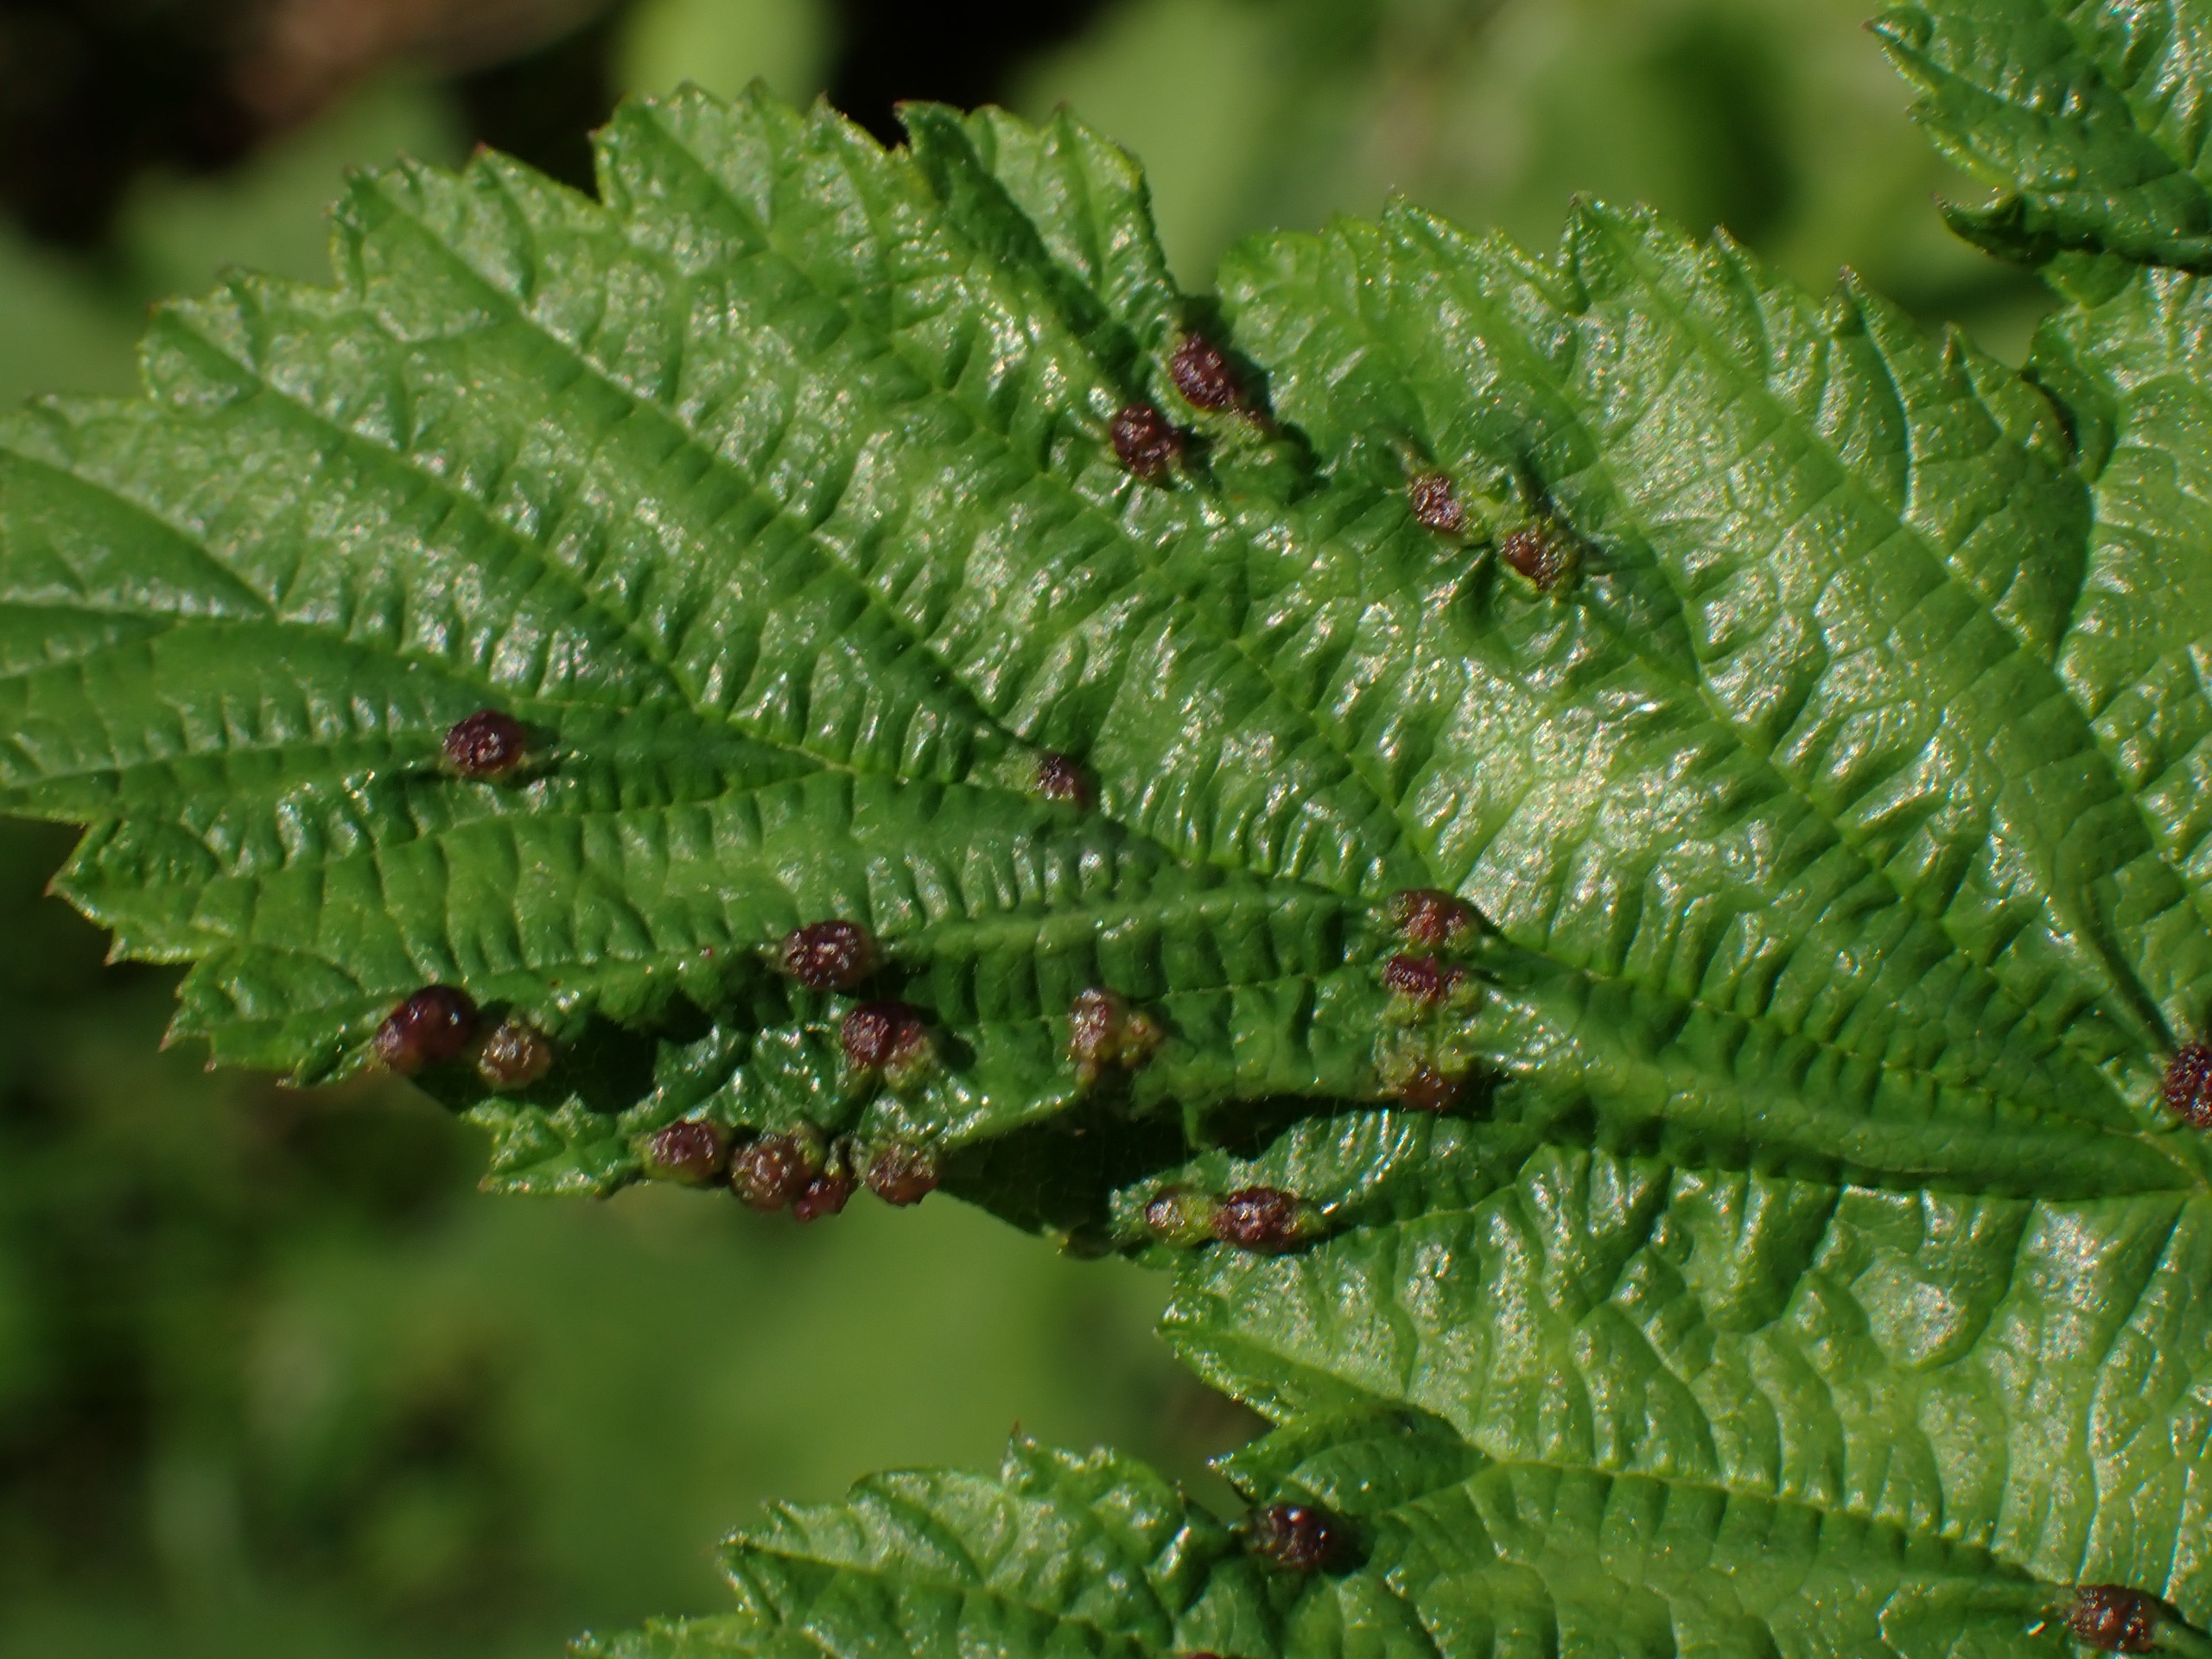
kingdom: Animalia
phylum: Arthropoda
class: Insecta
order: Diptera
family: Cecidomyiidae
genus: Dasineura
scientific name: Dasineura ulmaria
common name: Mjødurtgalmyg
